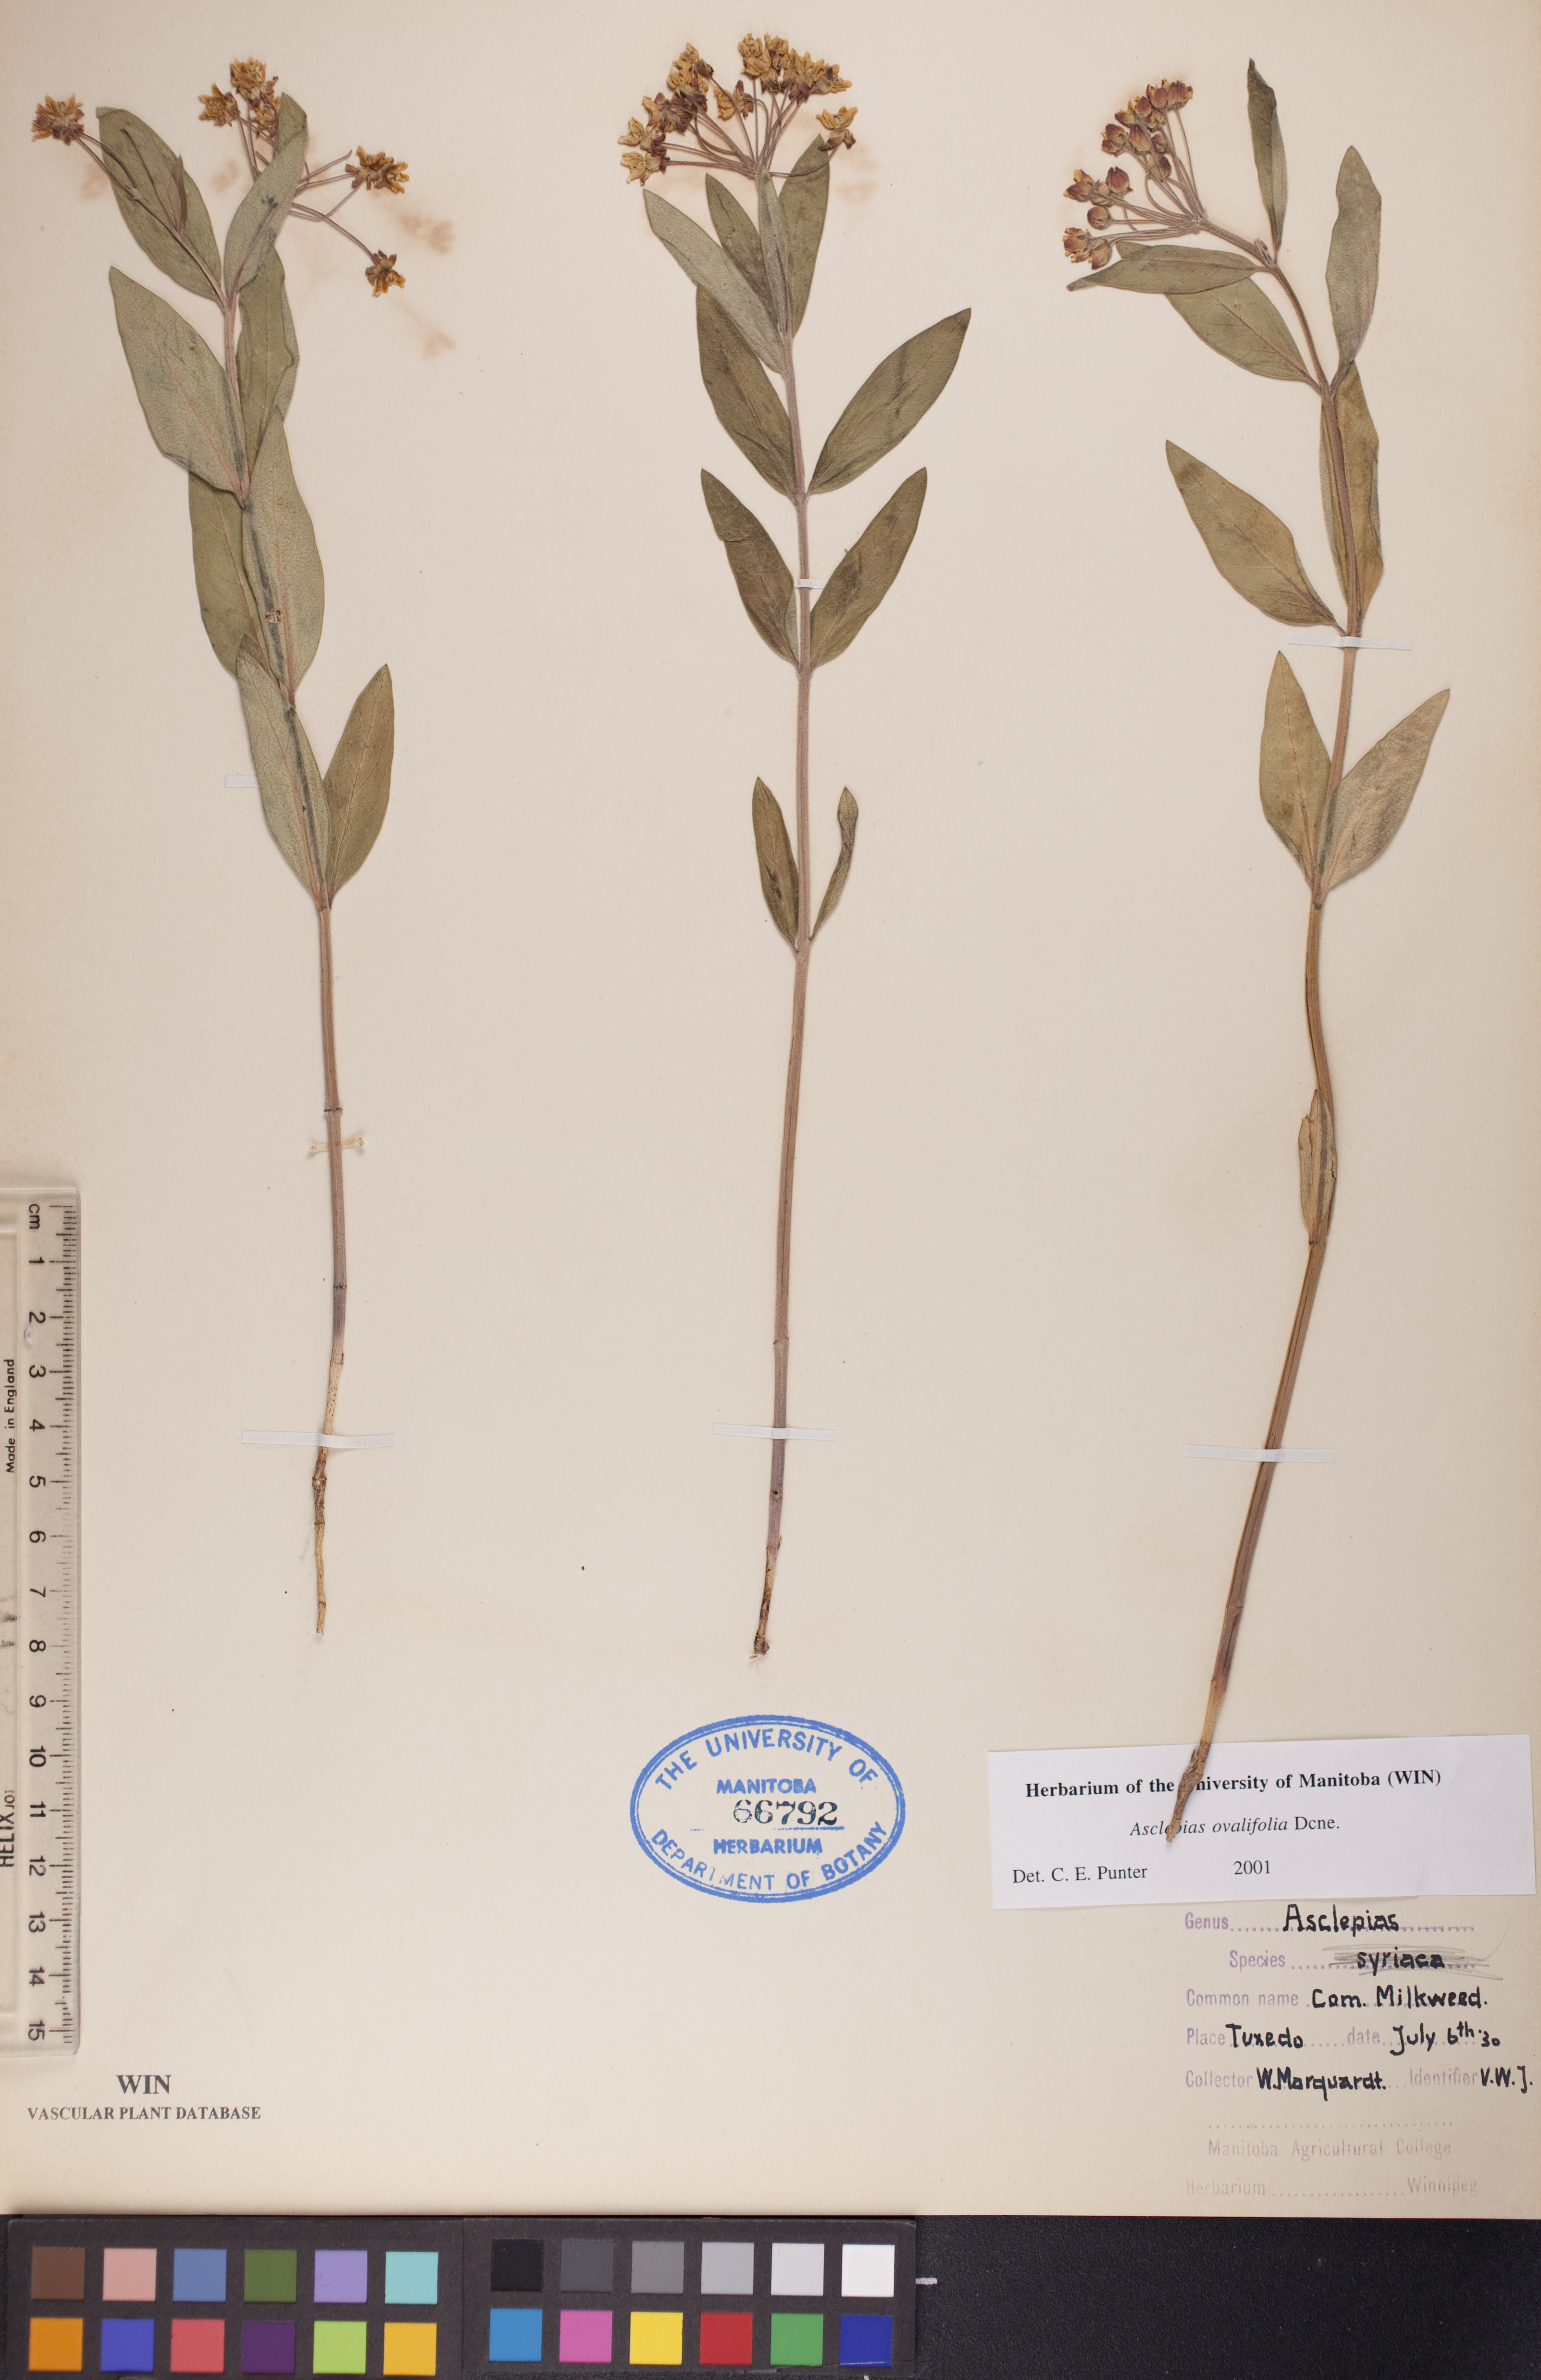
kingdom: Plantae
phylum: Tracheophyta
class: Magnoliopsida
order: Gentianales
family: Apocynaceae
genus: Asclepias
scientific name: Asclepias ovalifolia
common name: Dwarf milkweed
